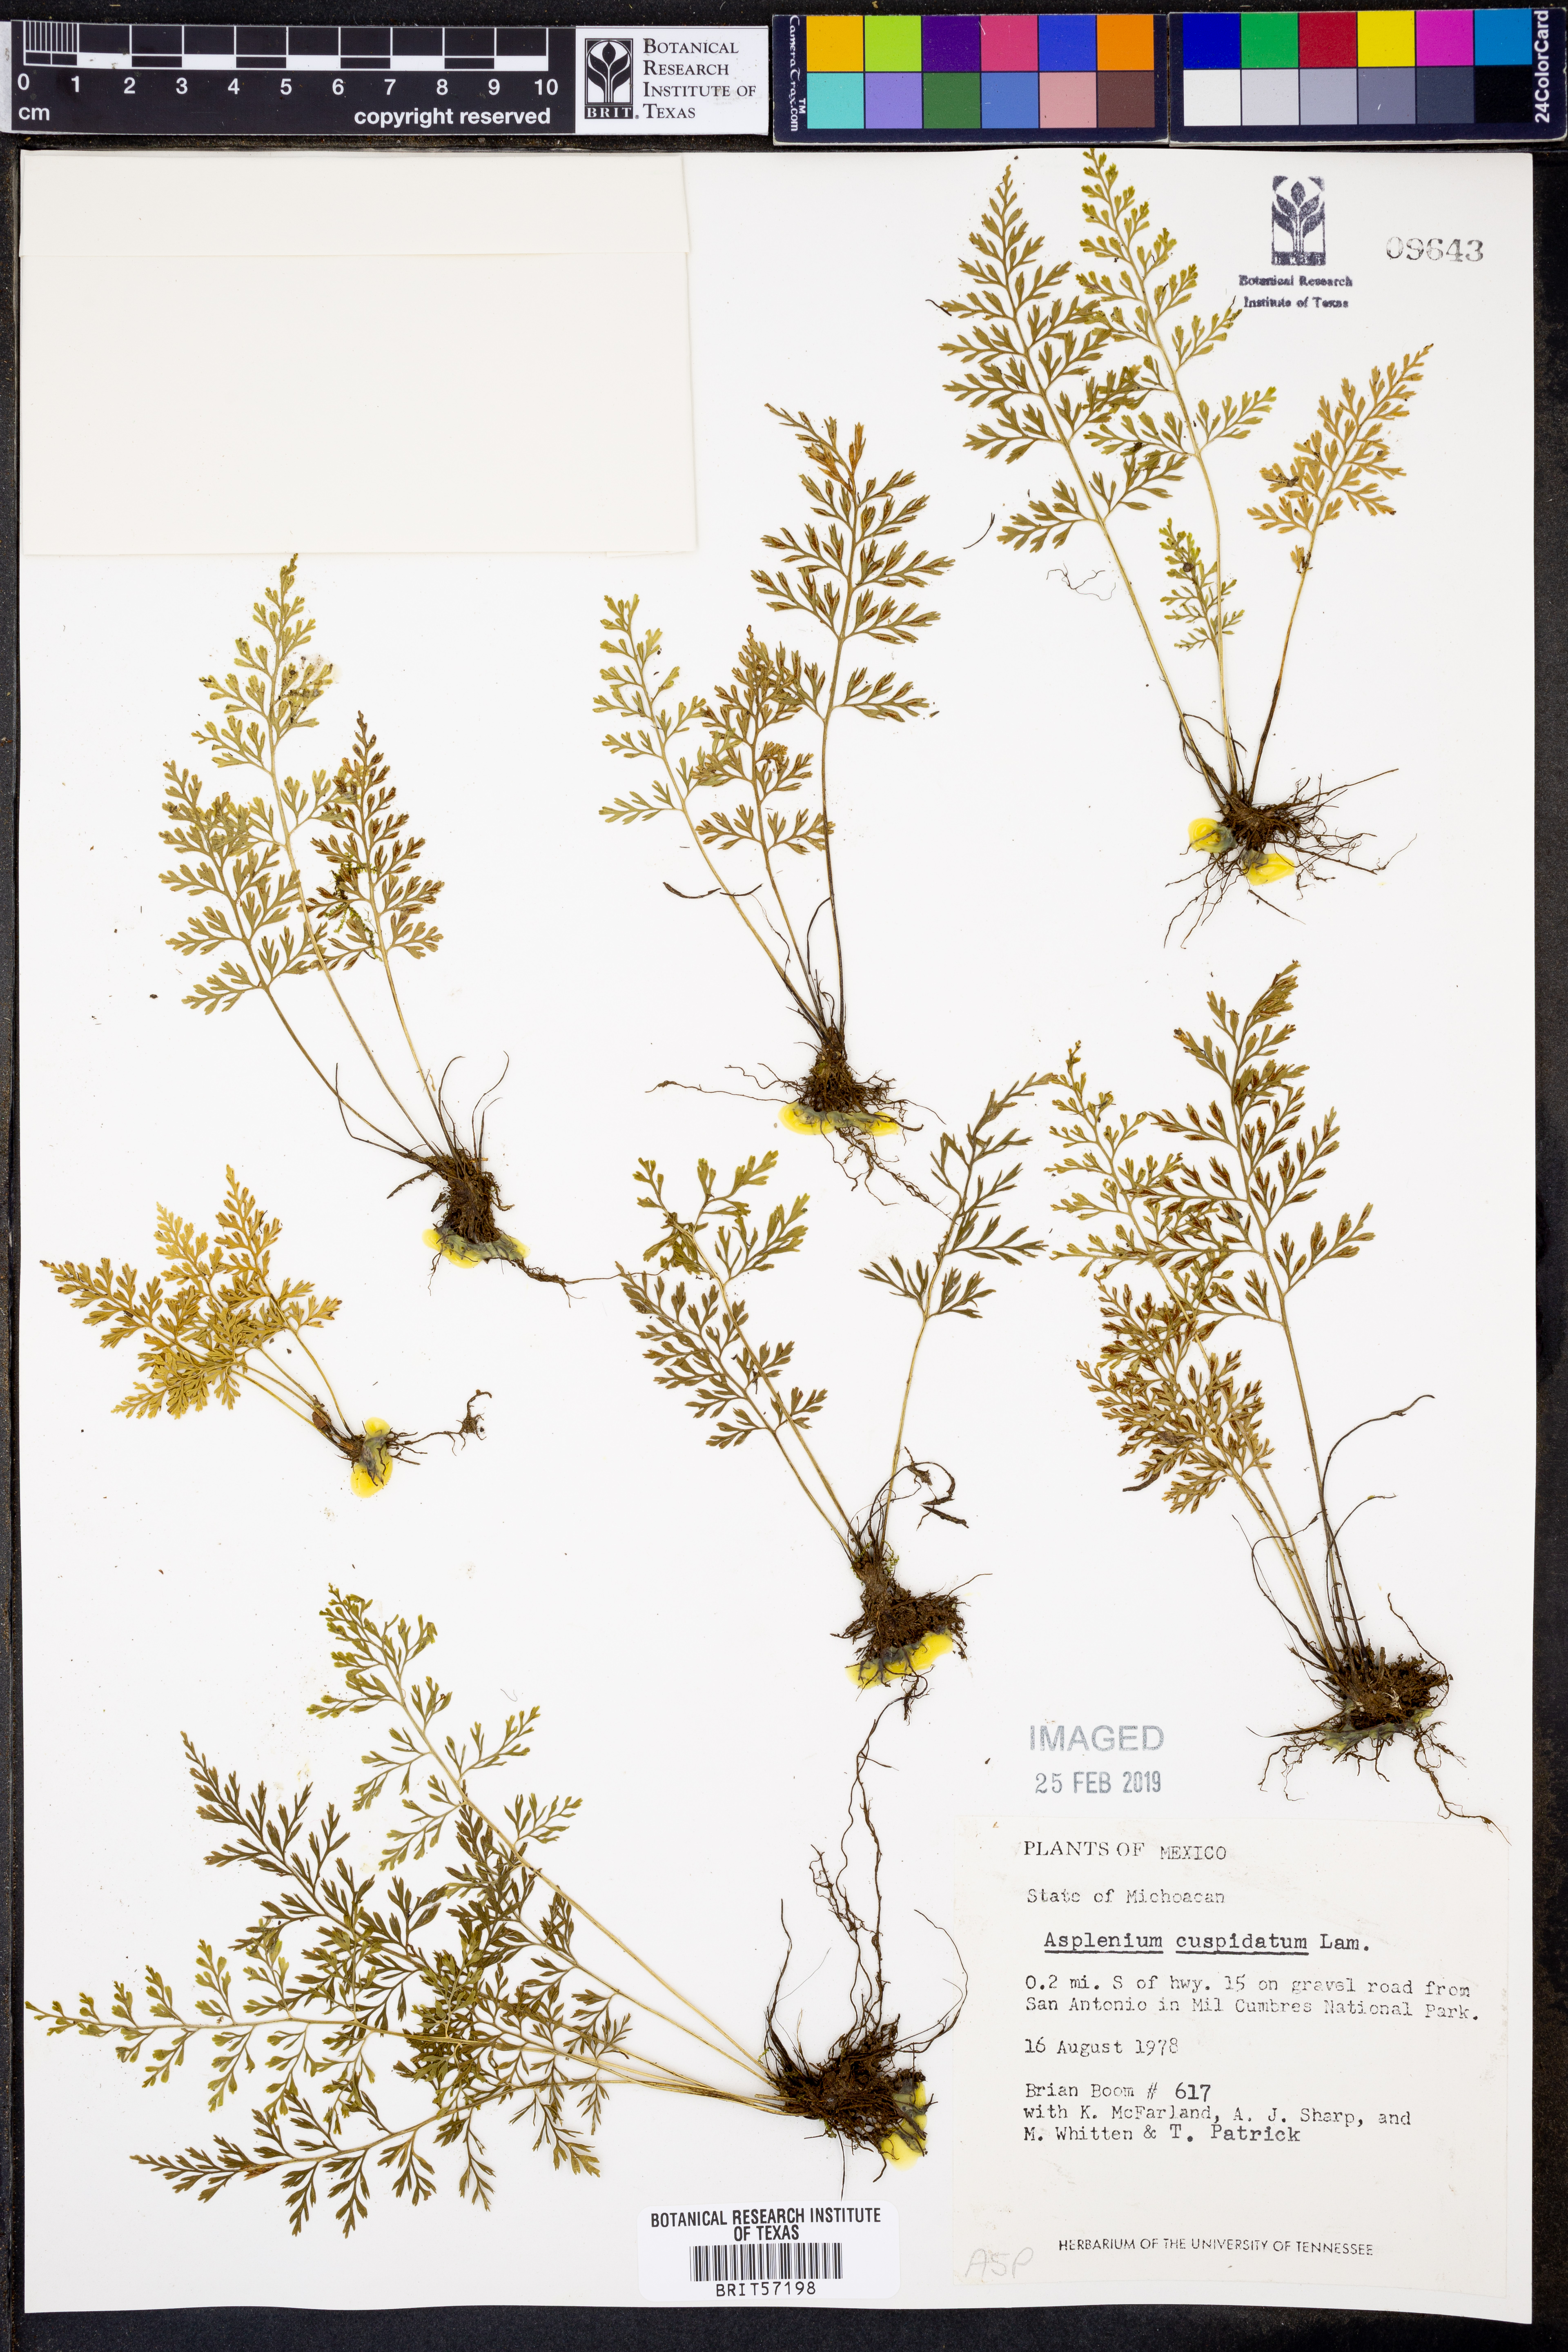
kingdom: Plantae
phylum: Tracheophyta
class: Polypodiopsida
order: Polypodiales
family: Aspleniaceae
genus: Asplenium
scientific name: Asplenium cuspidatum
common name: Eared spleenwort
